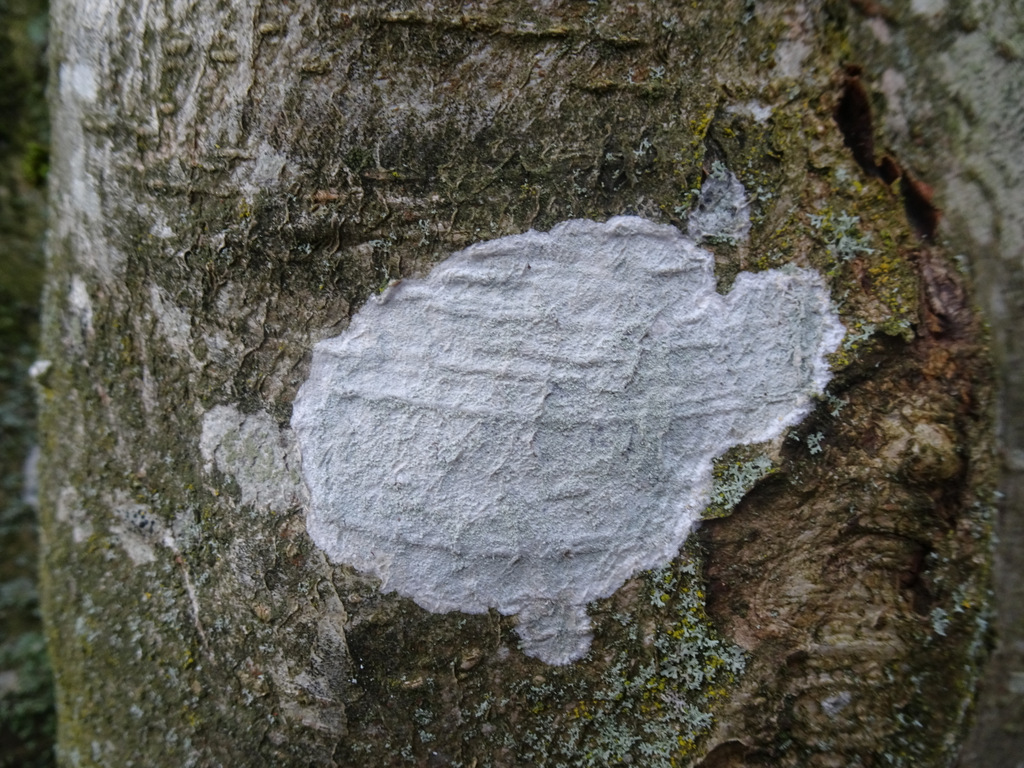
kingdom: Fungi
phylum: Ascomycota
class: Lecanoromycetes
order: Ostropales
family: Phlyctidaceae
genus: Phlyctis
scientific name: Phlyctis argena
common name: almindelig sølvlav
